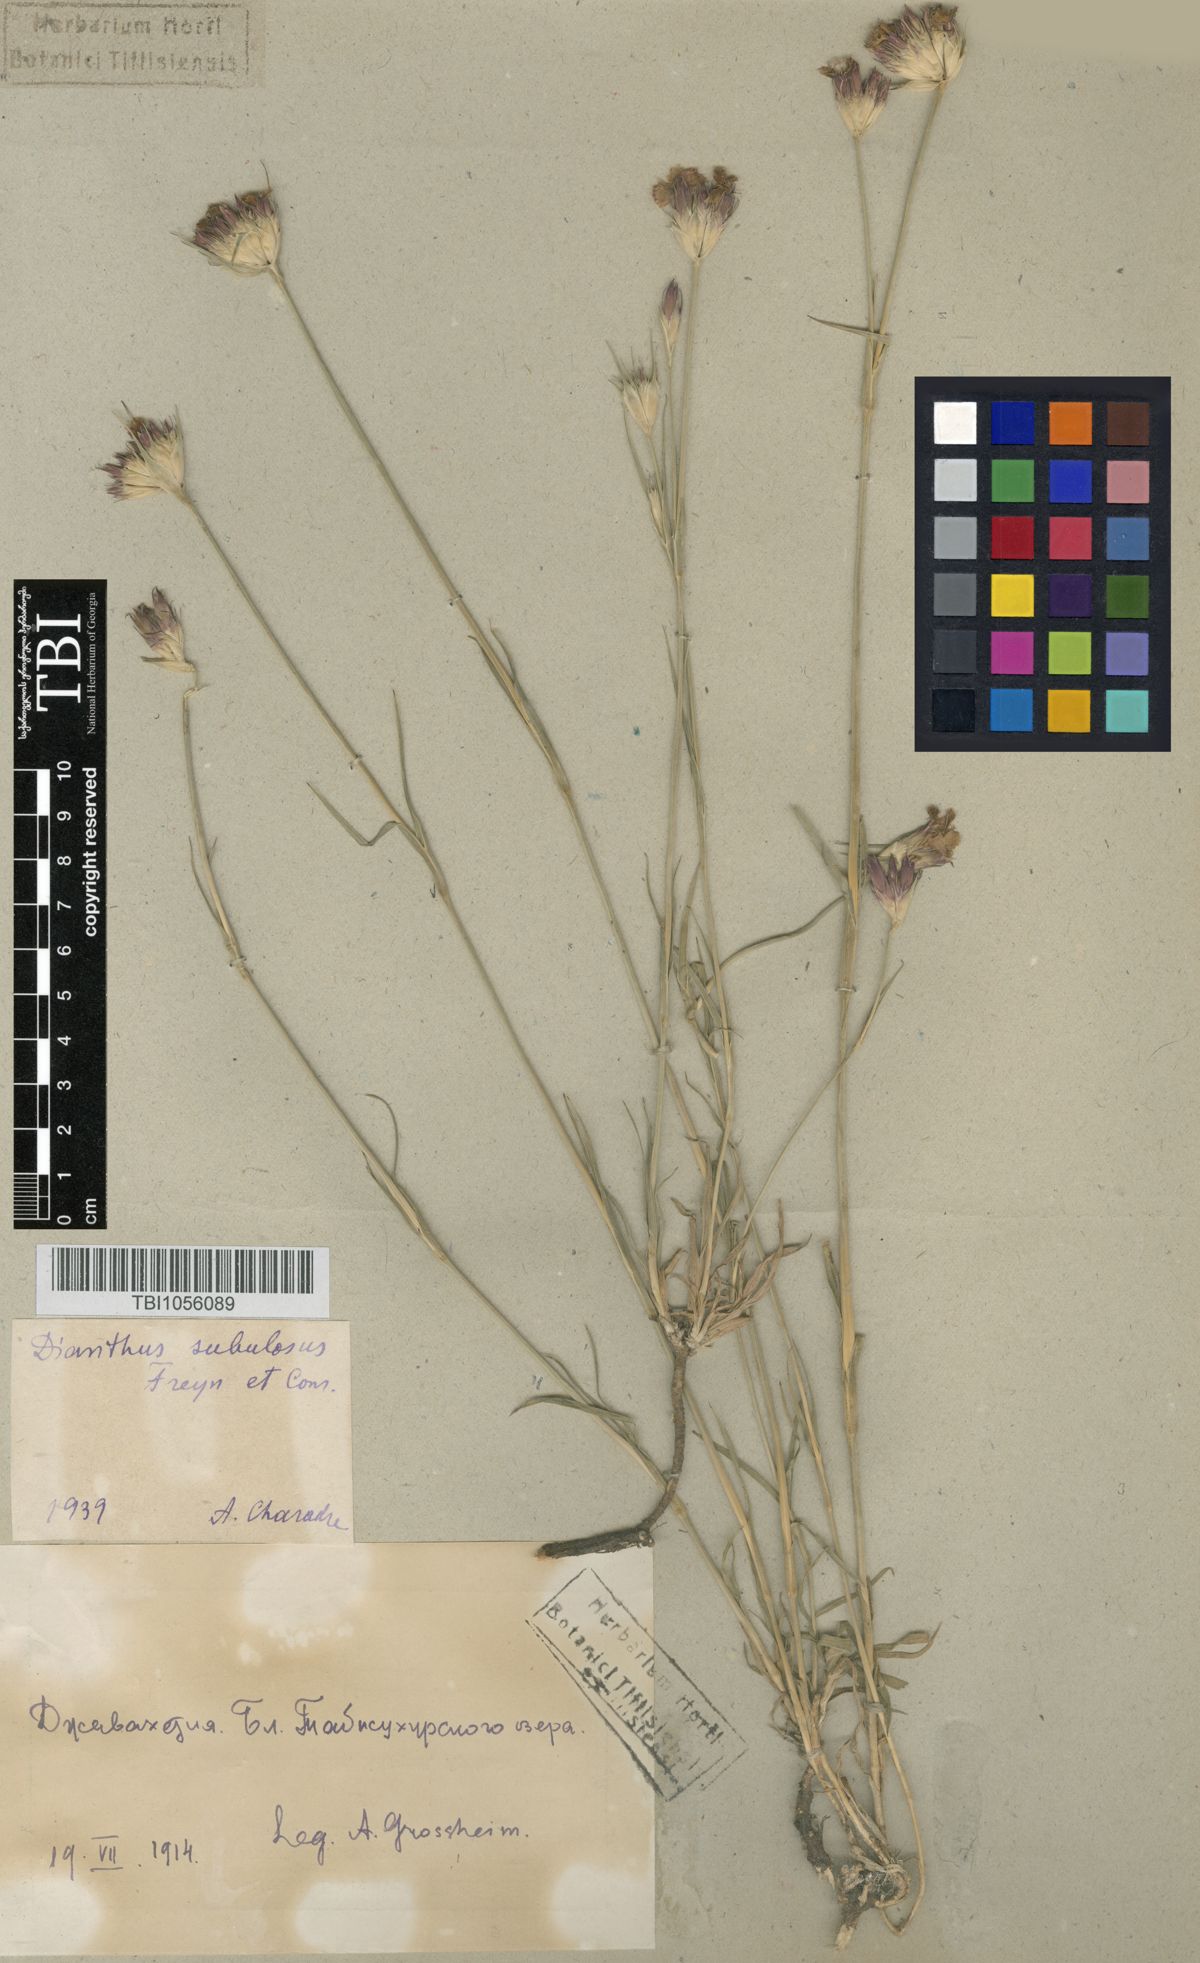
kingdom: Plantae
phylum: Tracheophyta
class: Magnoliopsida
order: Caryophyllales
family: Caryophyllaceae
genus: Dianthus
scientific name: Dianthus subulosus
